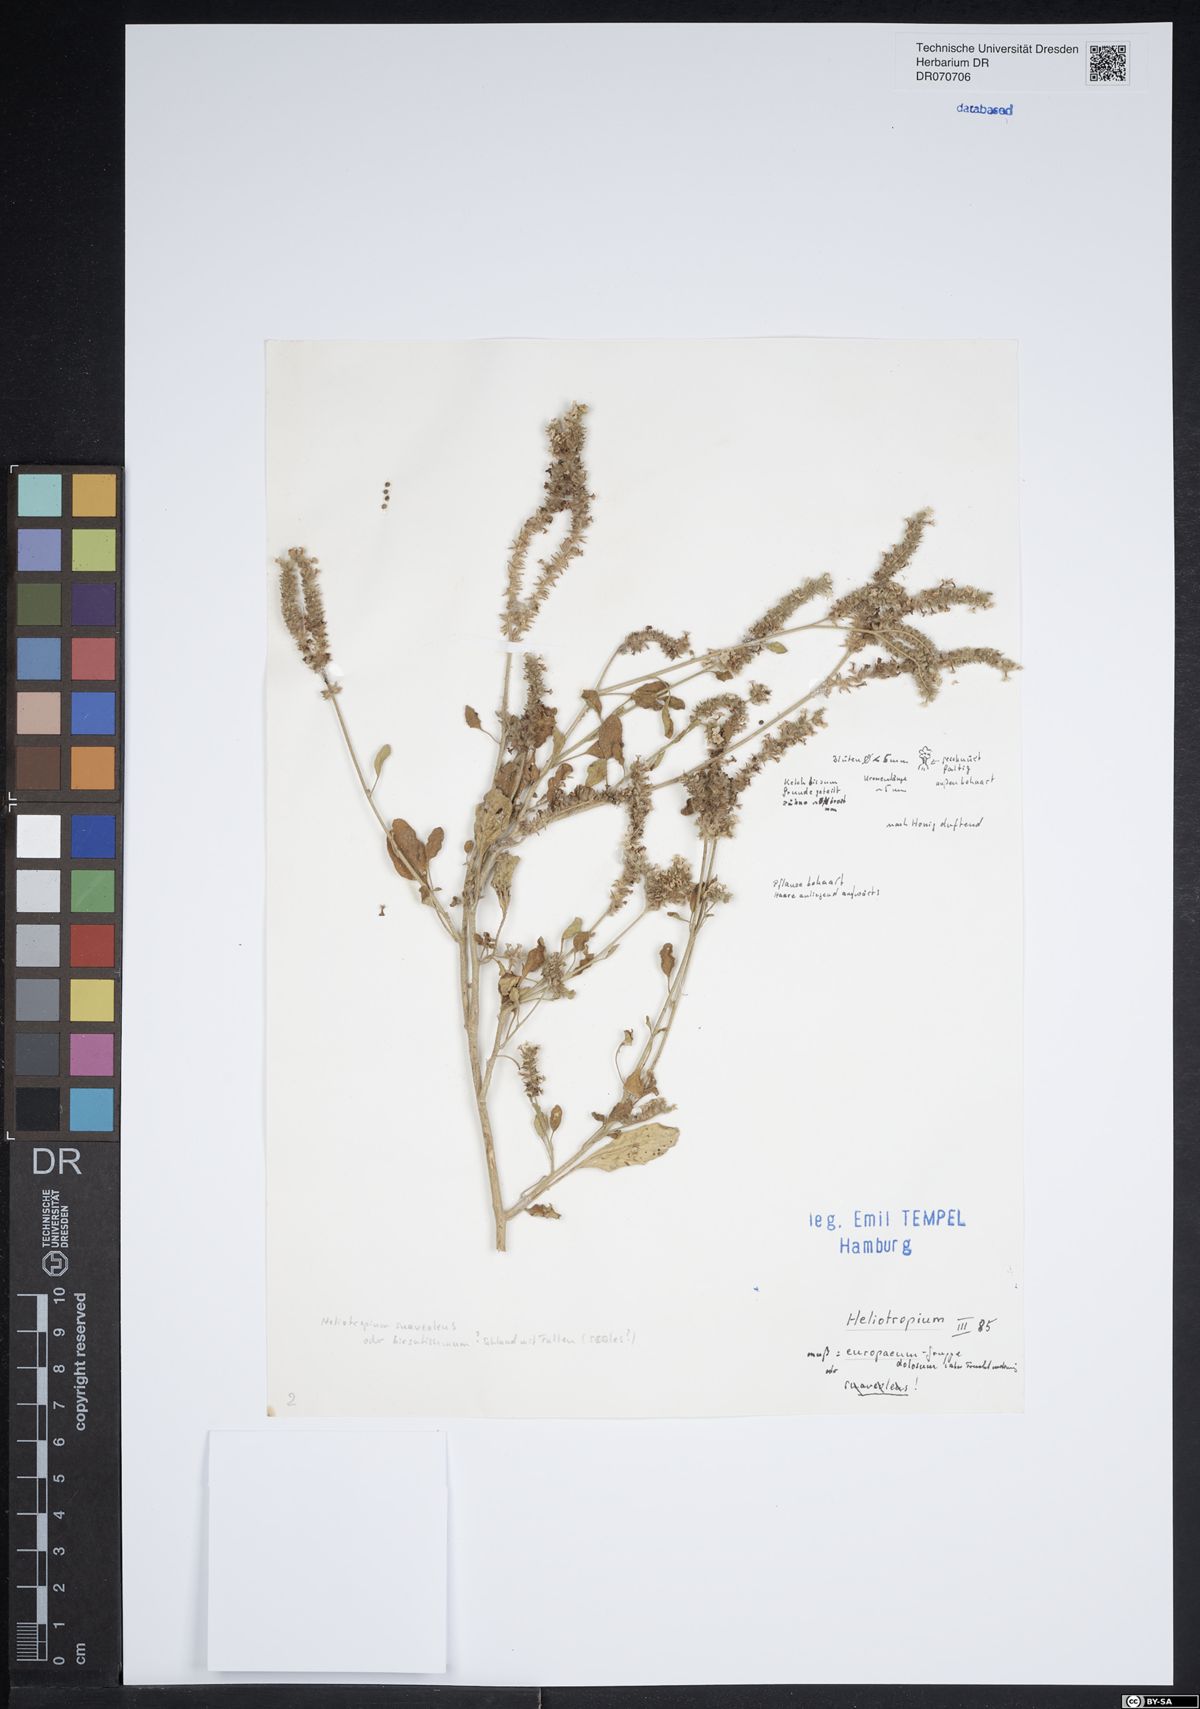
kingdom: Plantae
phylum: Tracheophyta
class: Magnoliopsida
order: Boraginales
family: Heliotropiaceae
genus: Heliotropium
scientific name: Heliotropium europaeum
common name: European heliotrope
